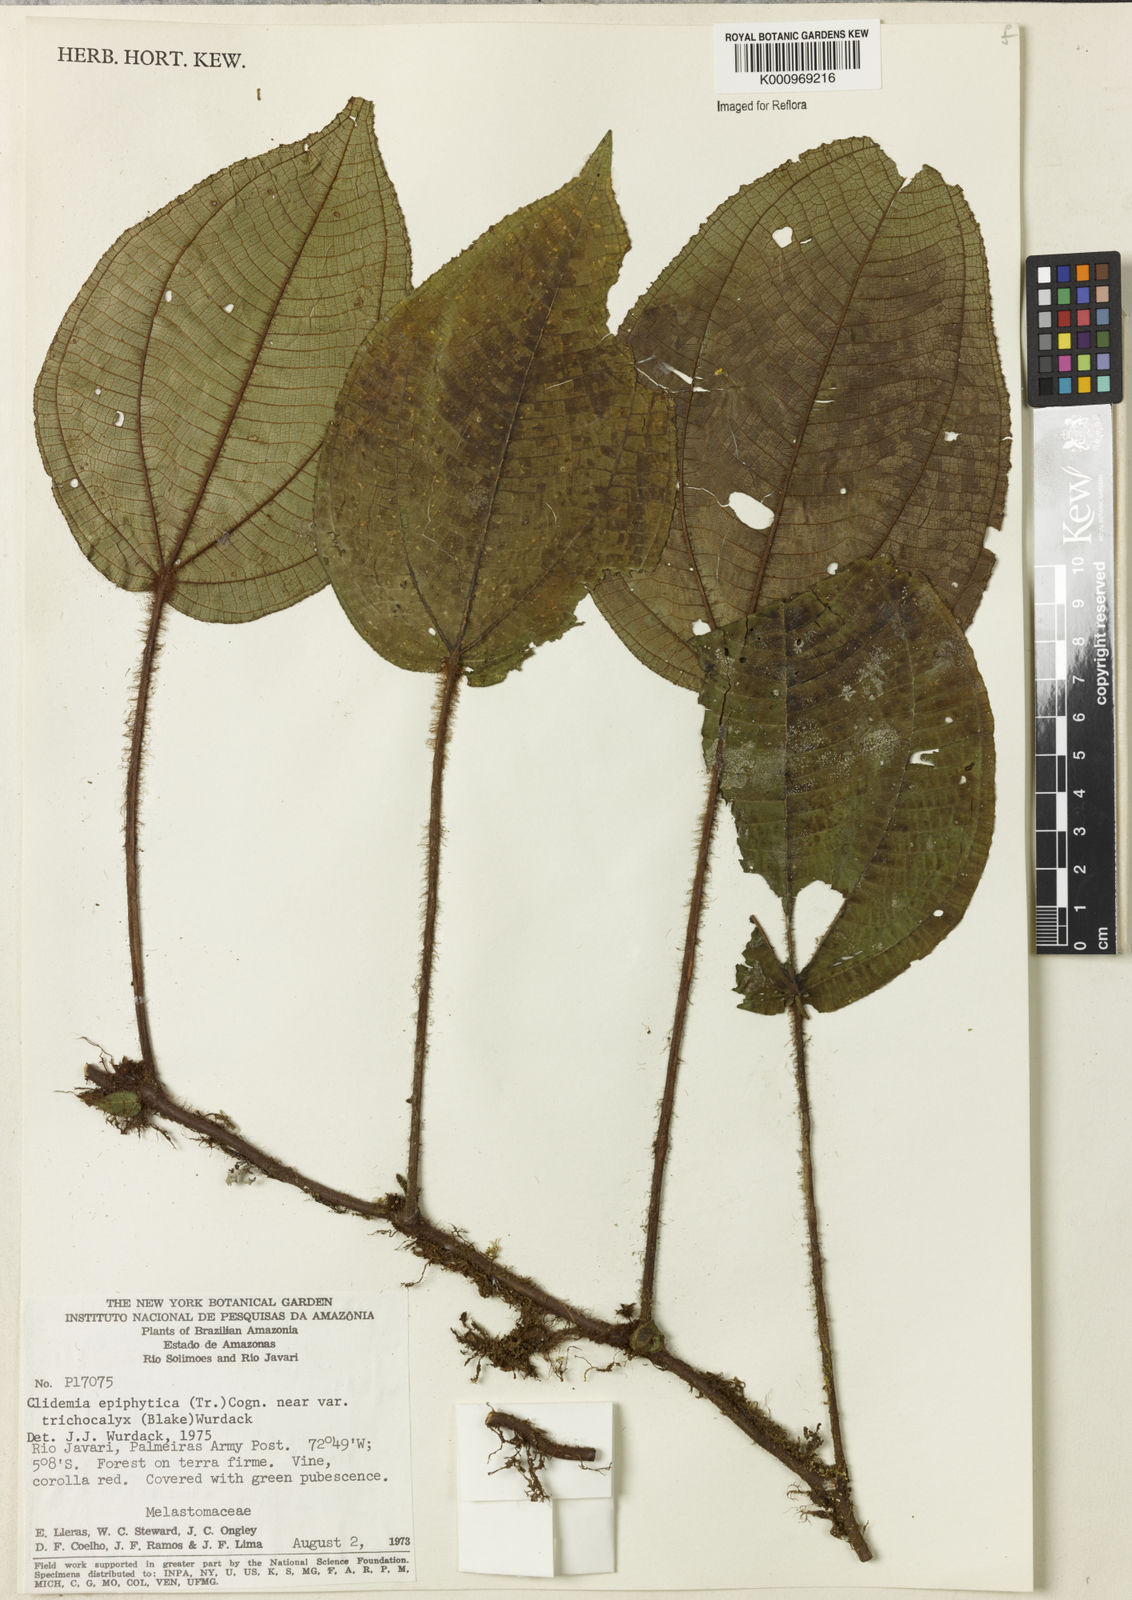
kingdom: Plantae
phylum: Tracheophyta
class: Magnoliopsida
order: Myrtales
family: Melastomataceae
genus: Miconia
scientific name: Miconia neoepiphytica
